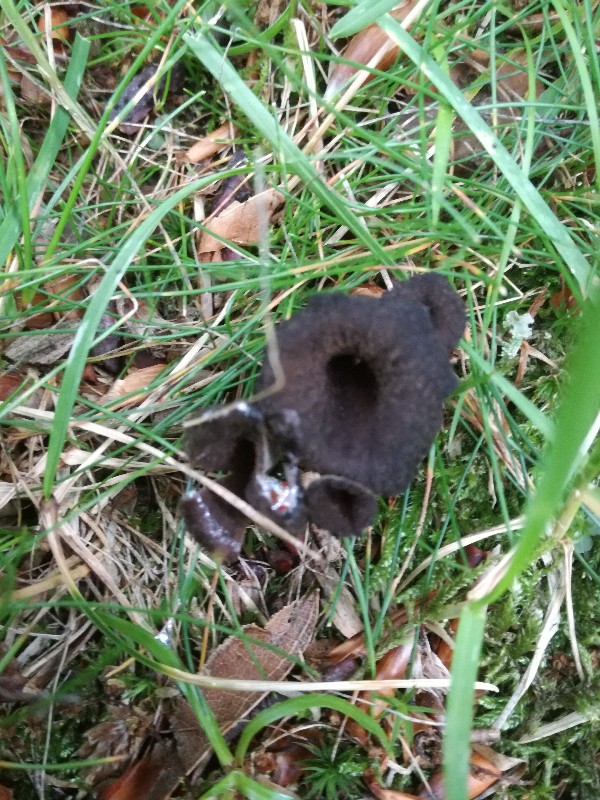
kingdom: Fungi
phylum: Basidiomycota
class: Agaricomycetes
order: Cantharellales
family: Hydnaceae
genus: Craterellus
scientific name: Craterellus cornucopioides
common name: trompetsvamp
